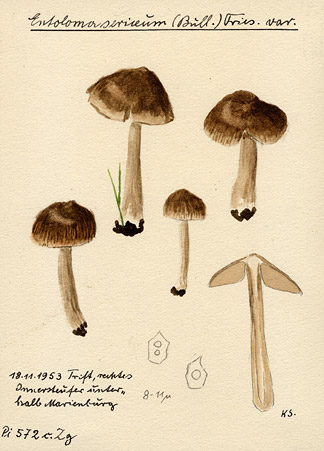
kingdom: Fungi
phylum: Basidiomycota
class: Agaricomycetes
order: Agaricales
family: Entolomataceae
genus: Entoloma
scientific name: Entoloma sericeum
